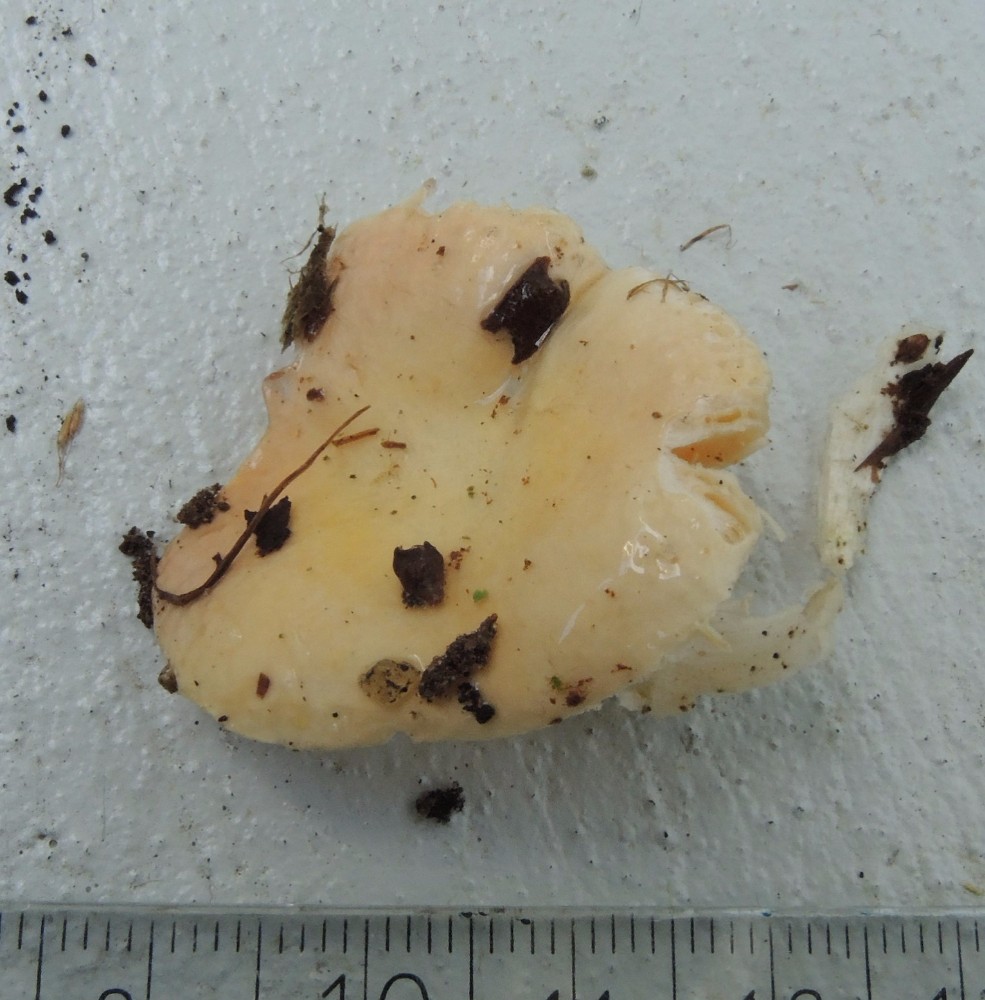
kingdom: Fungi
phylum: Basidiomycota
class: Agaricomycetes
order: Russulales
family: Russulaceae
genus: Russula
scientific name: Russula risigallina
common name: abrikos-skørhat
